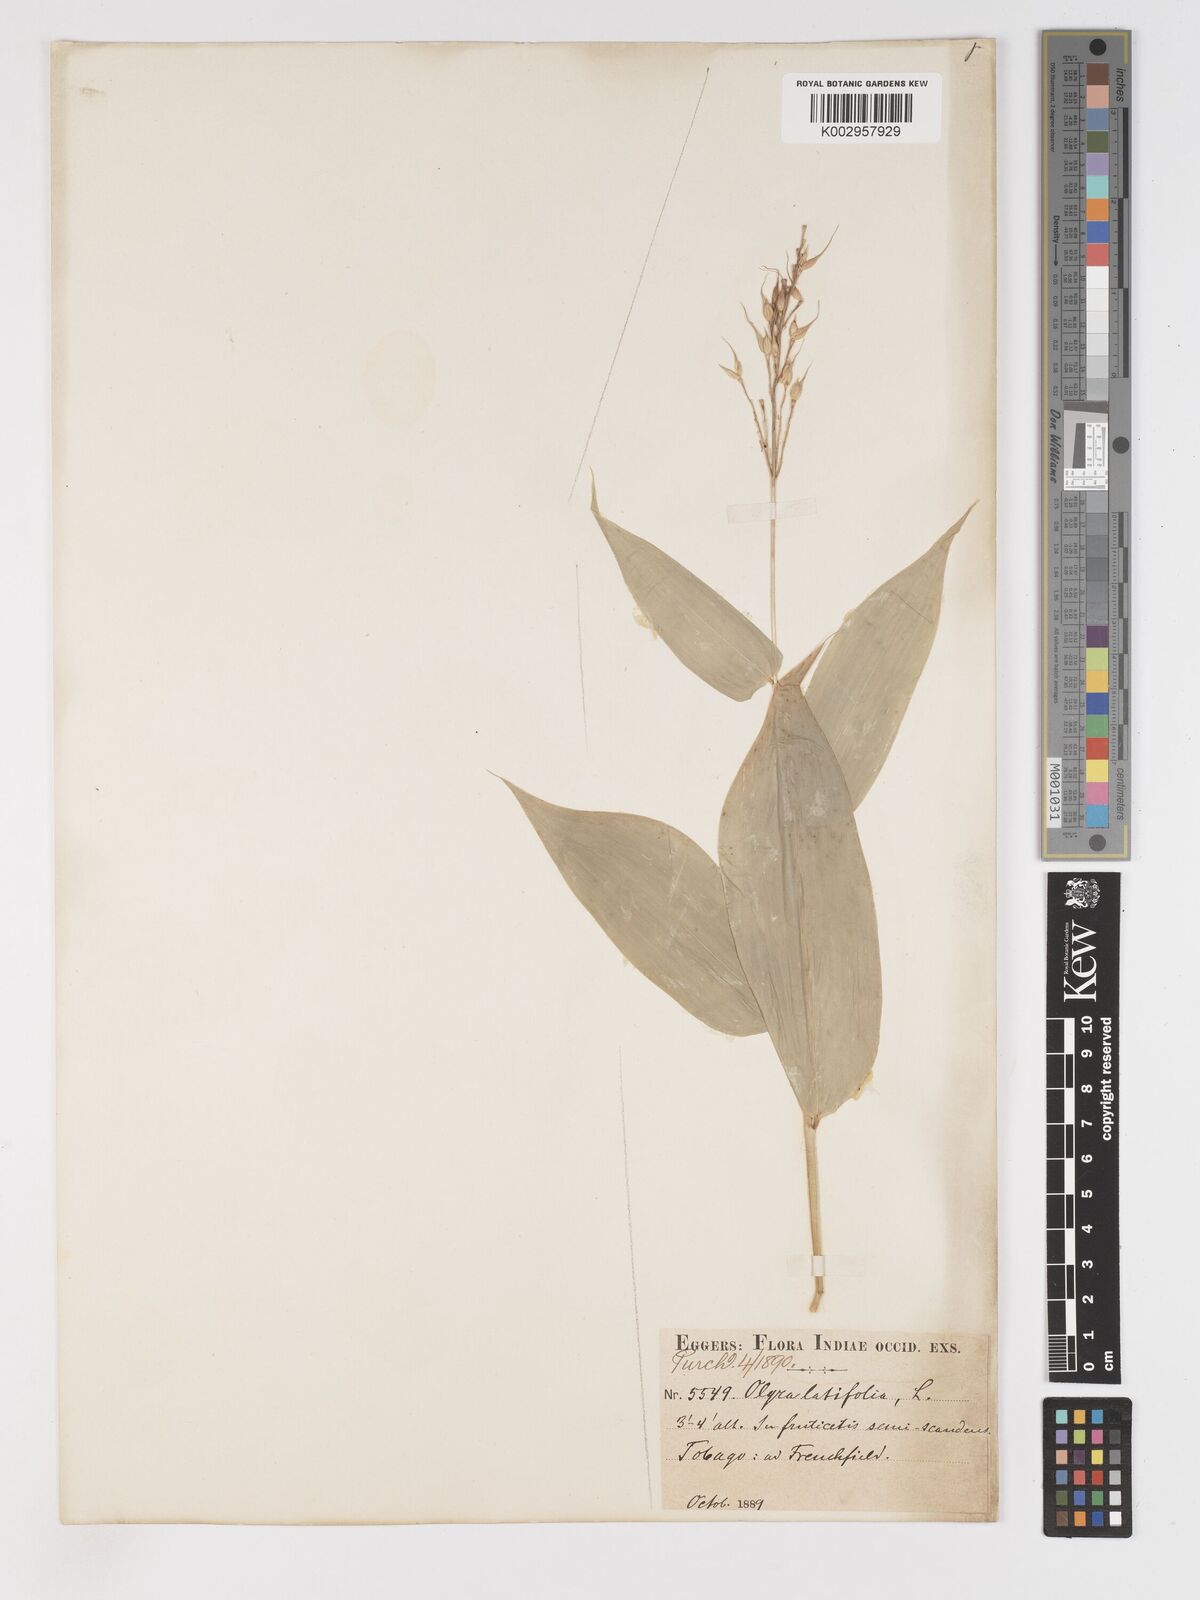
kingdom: Plantae
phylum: Tracheophyta
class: Liliopsida
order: Poales
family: Poaceae
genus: Olyra
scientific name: Olyra latifolia
